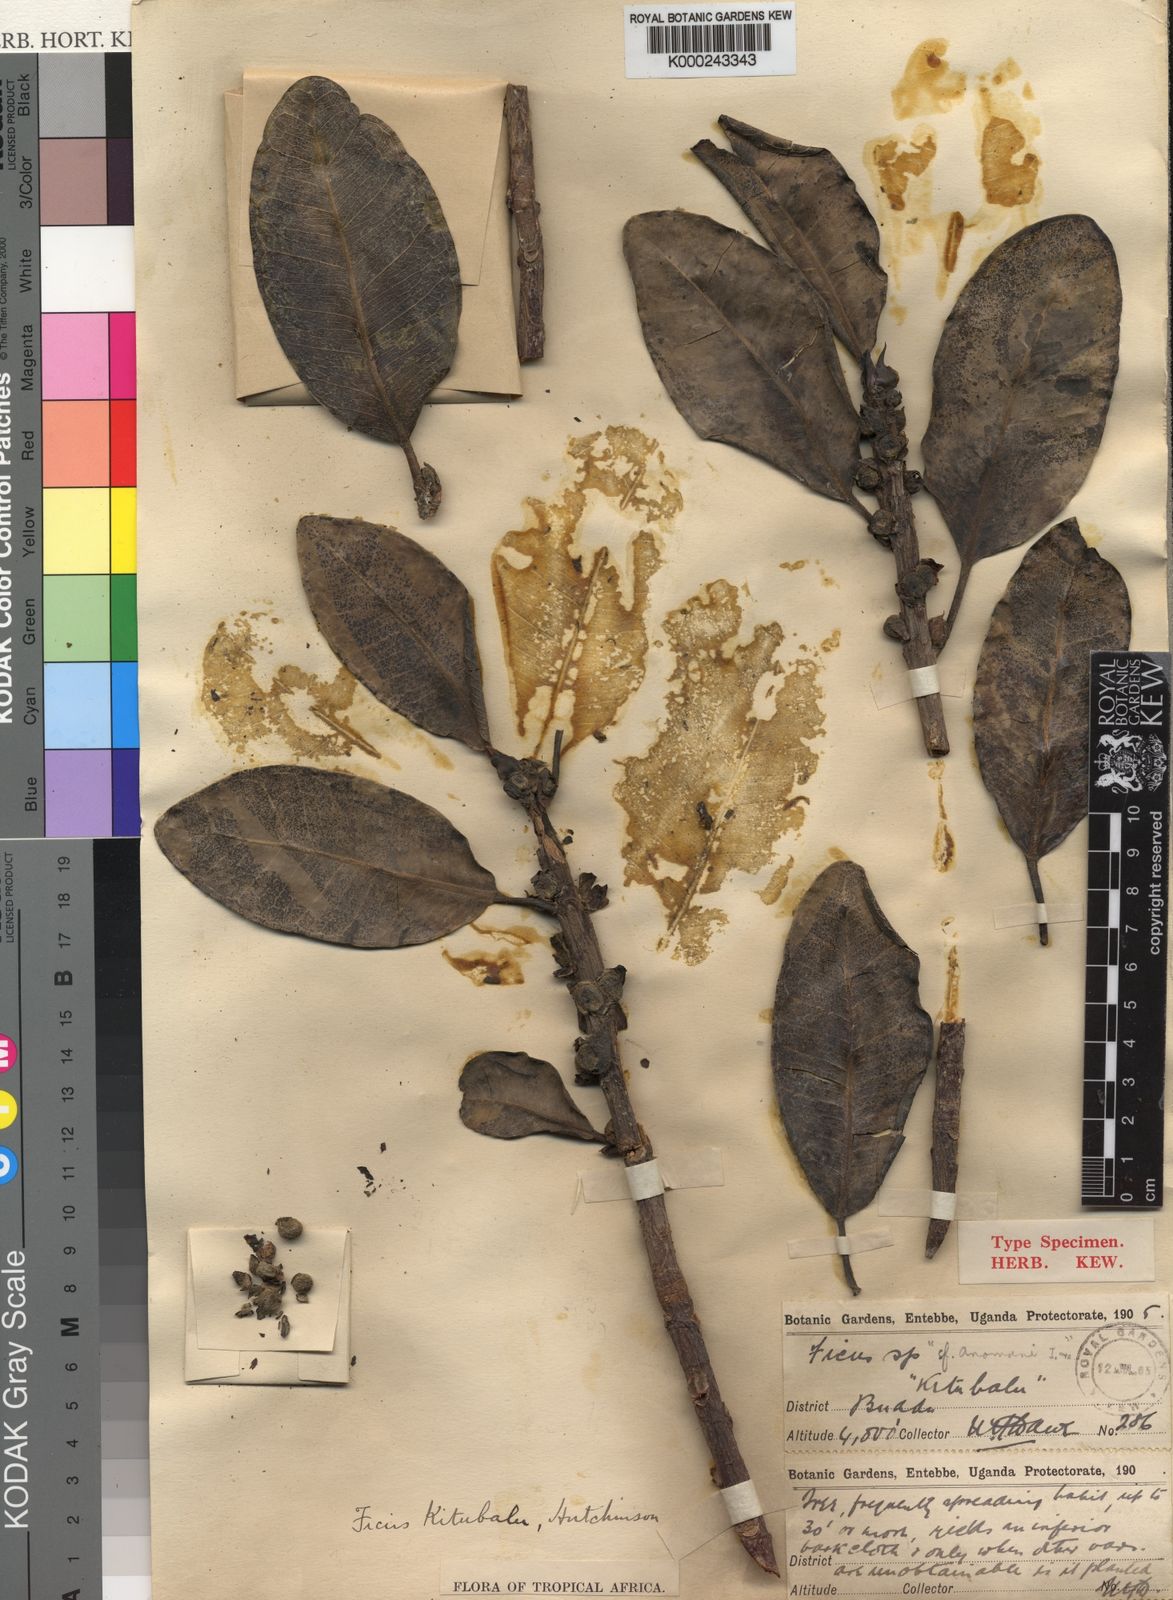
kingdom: Plantae
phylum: Tracheophyta
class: Magnoliopsida
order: Rosales
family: Moraceae
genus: Ficus
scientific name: Ficus
